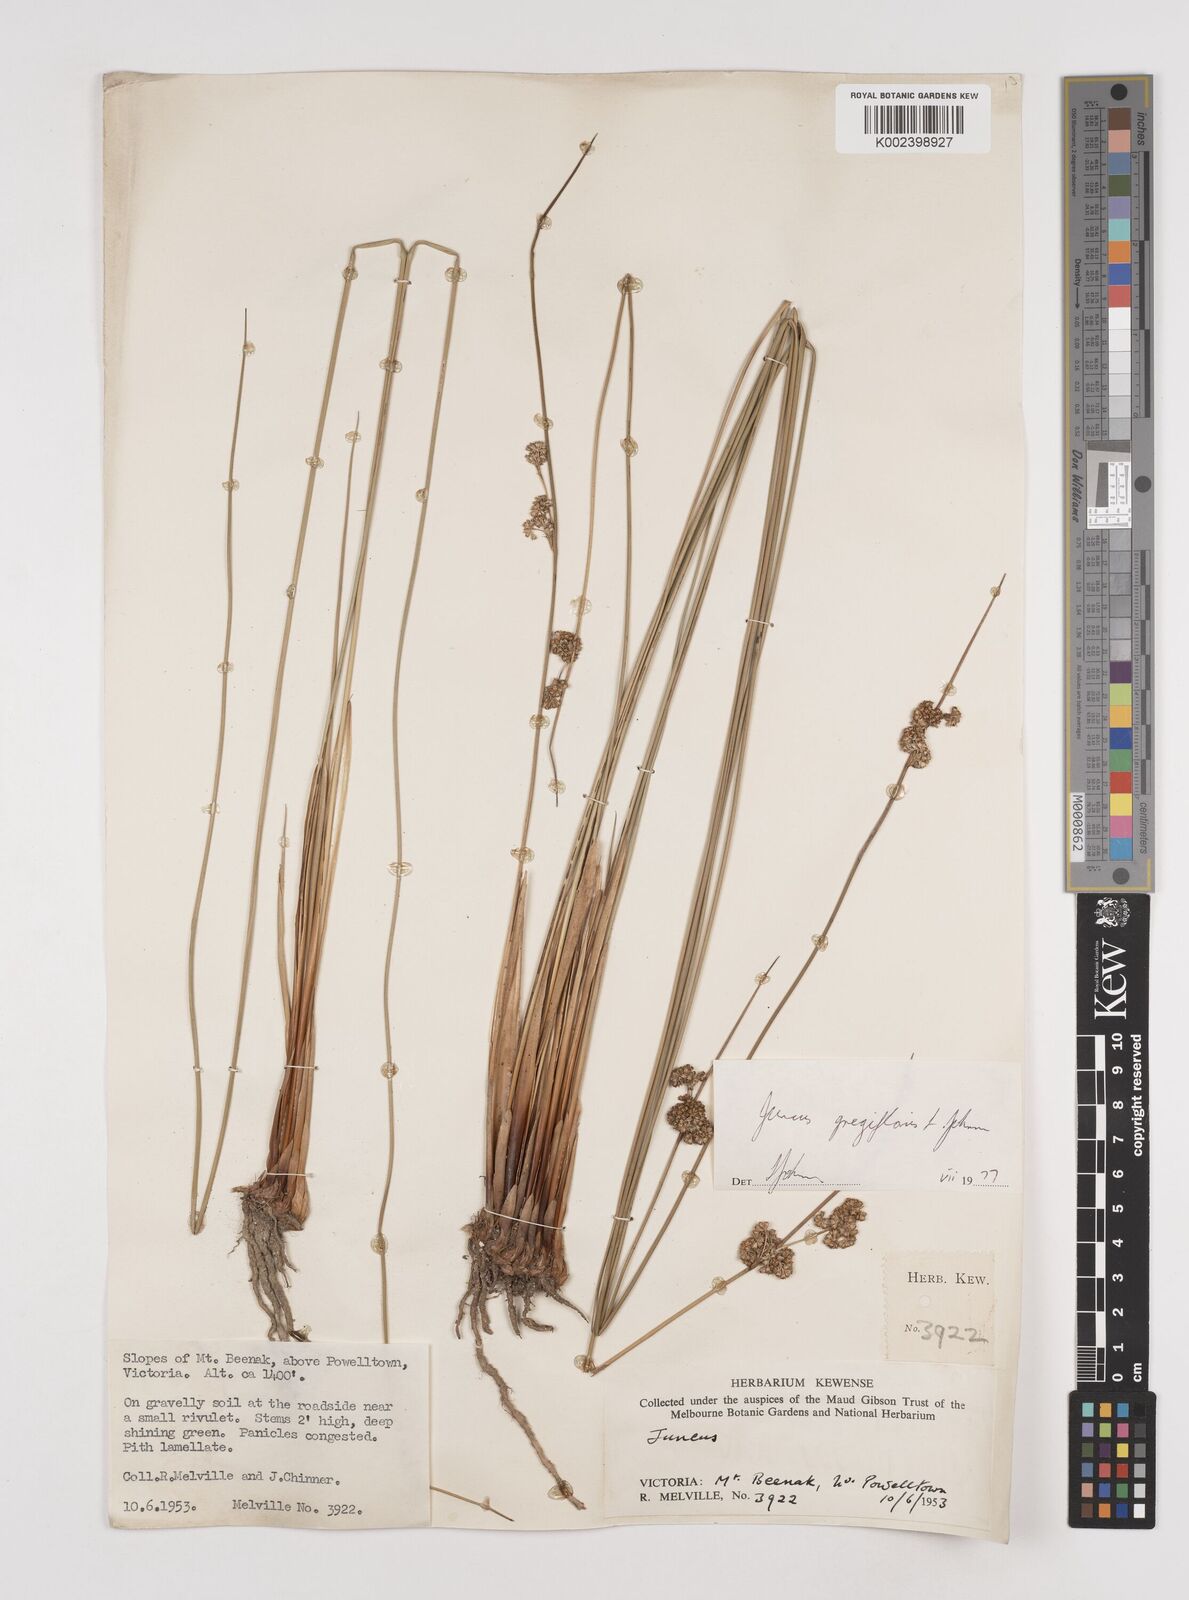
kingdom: Plantae
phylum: Tracheophyta
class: Liliopsida
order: Poales
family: Juncaceae
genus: Juncus
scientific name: Juncus gregiflorus
